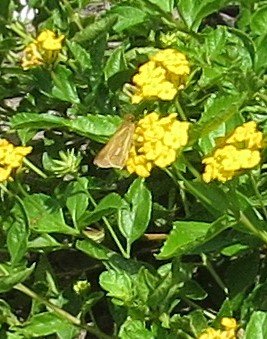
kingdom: Animalia
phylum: Arthropoda
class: Insecta
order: Lepidoptera
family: Hesperiidae
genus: Panoquina
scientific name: Panoquina panoquin
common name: Salt Marsh Skipper
